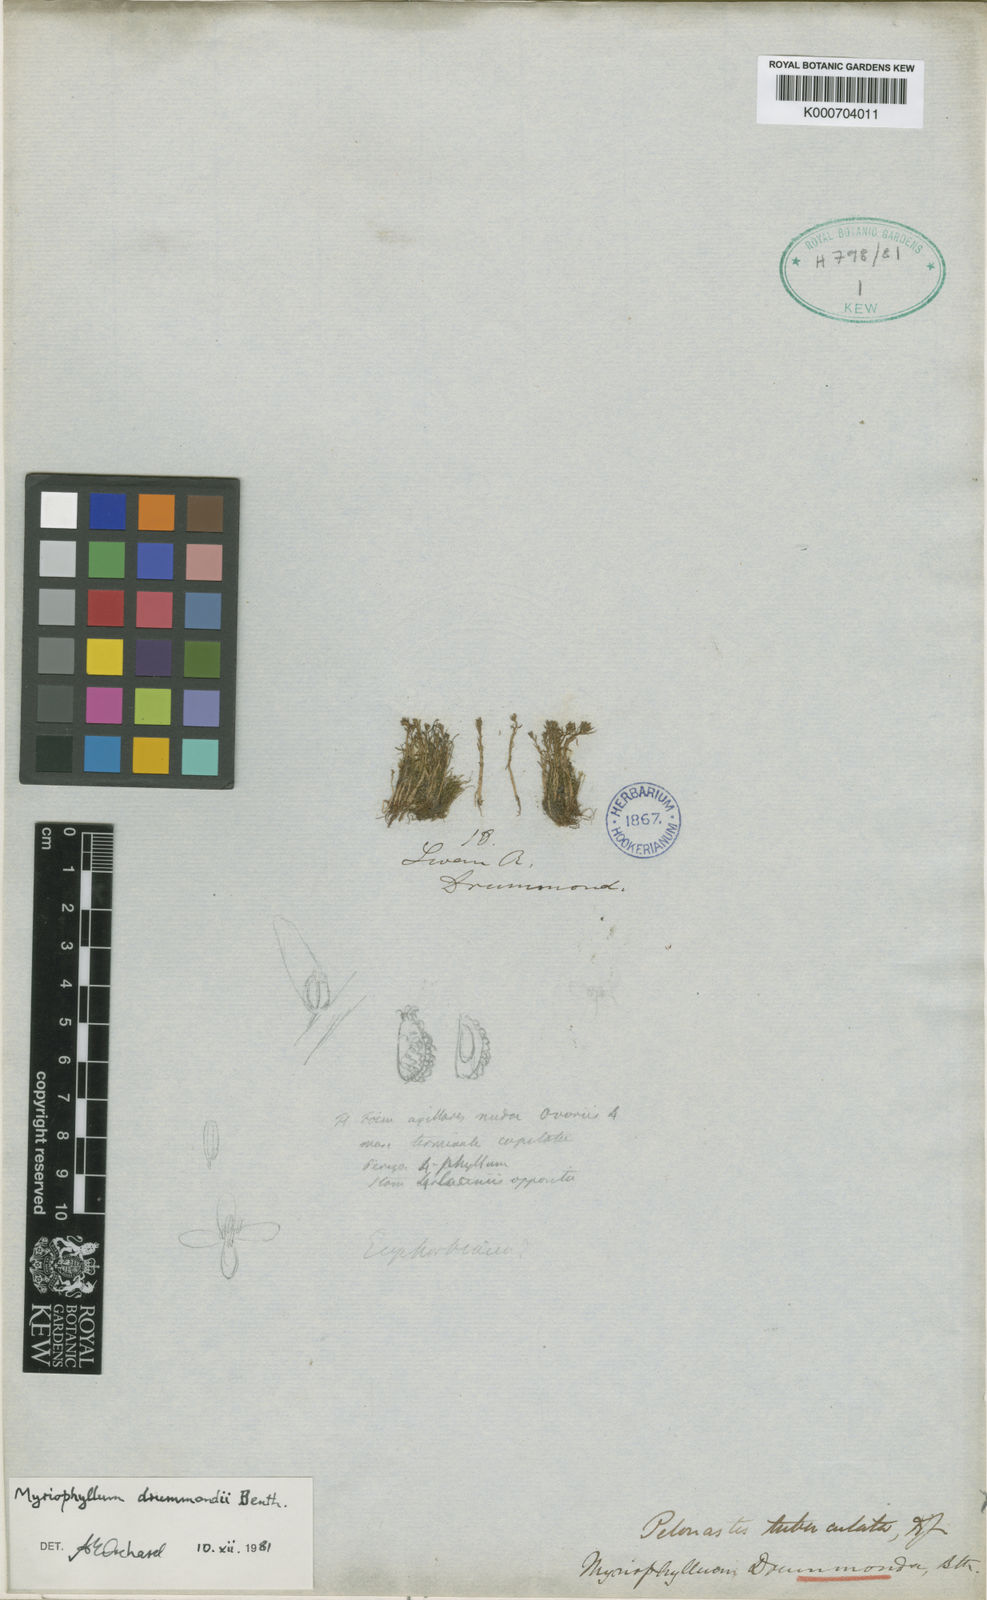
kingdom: Plantae
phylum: Tracheophyta
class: Magnoliopsida
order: Saxifragales
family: Haloragaceae
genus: Myriophyllum
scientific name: Myriophyllum drummondii
